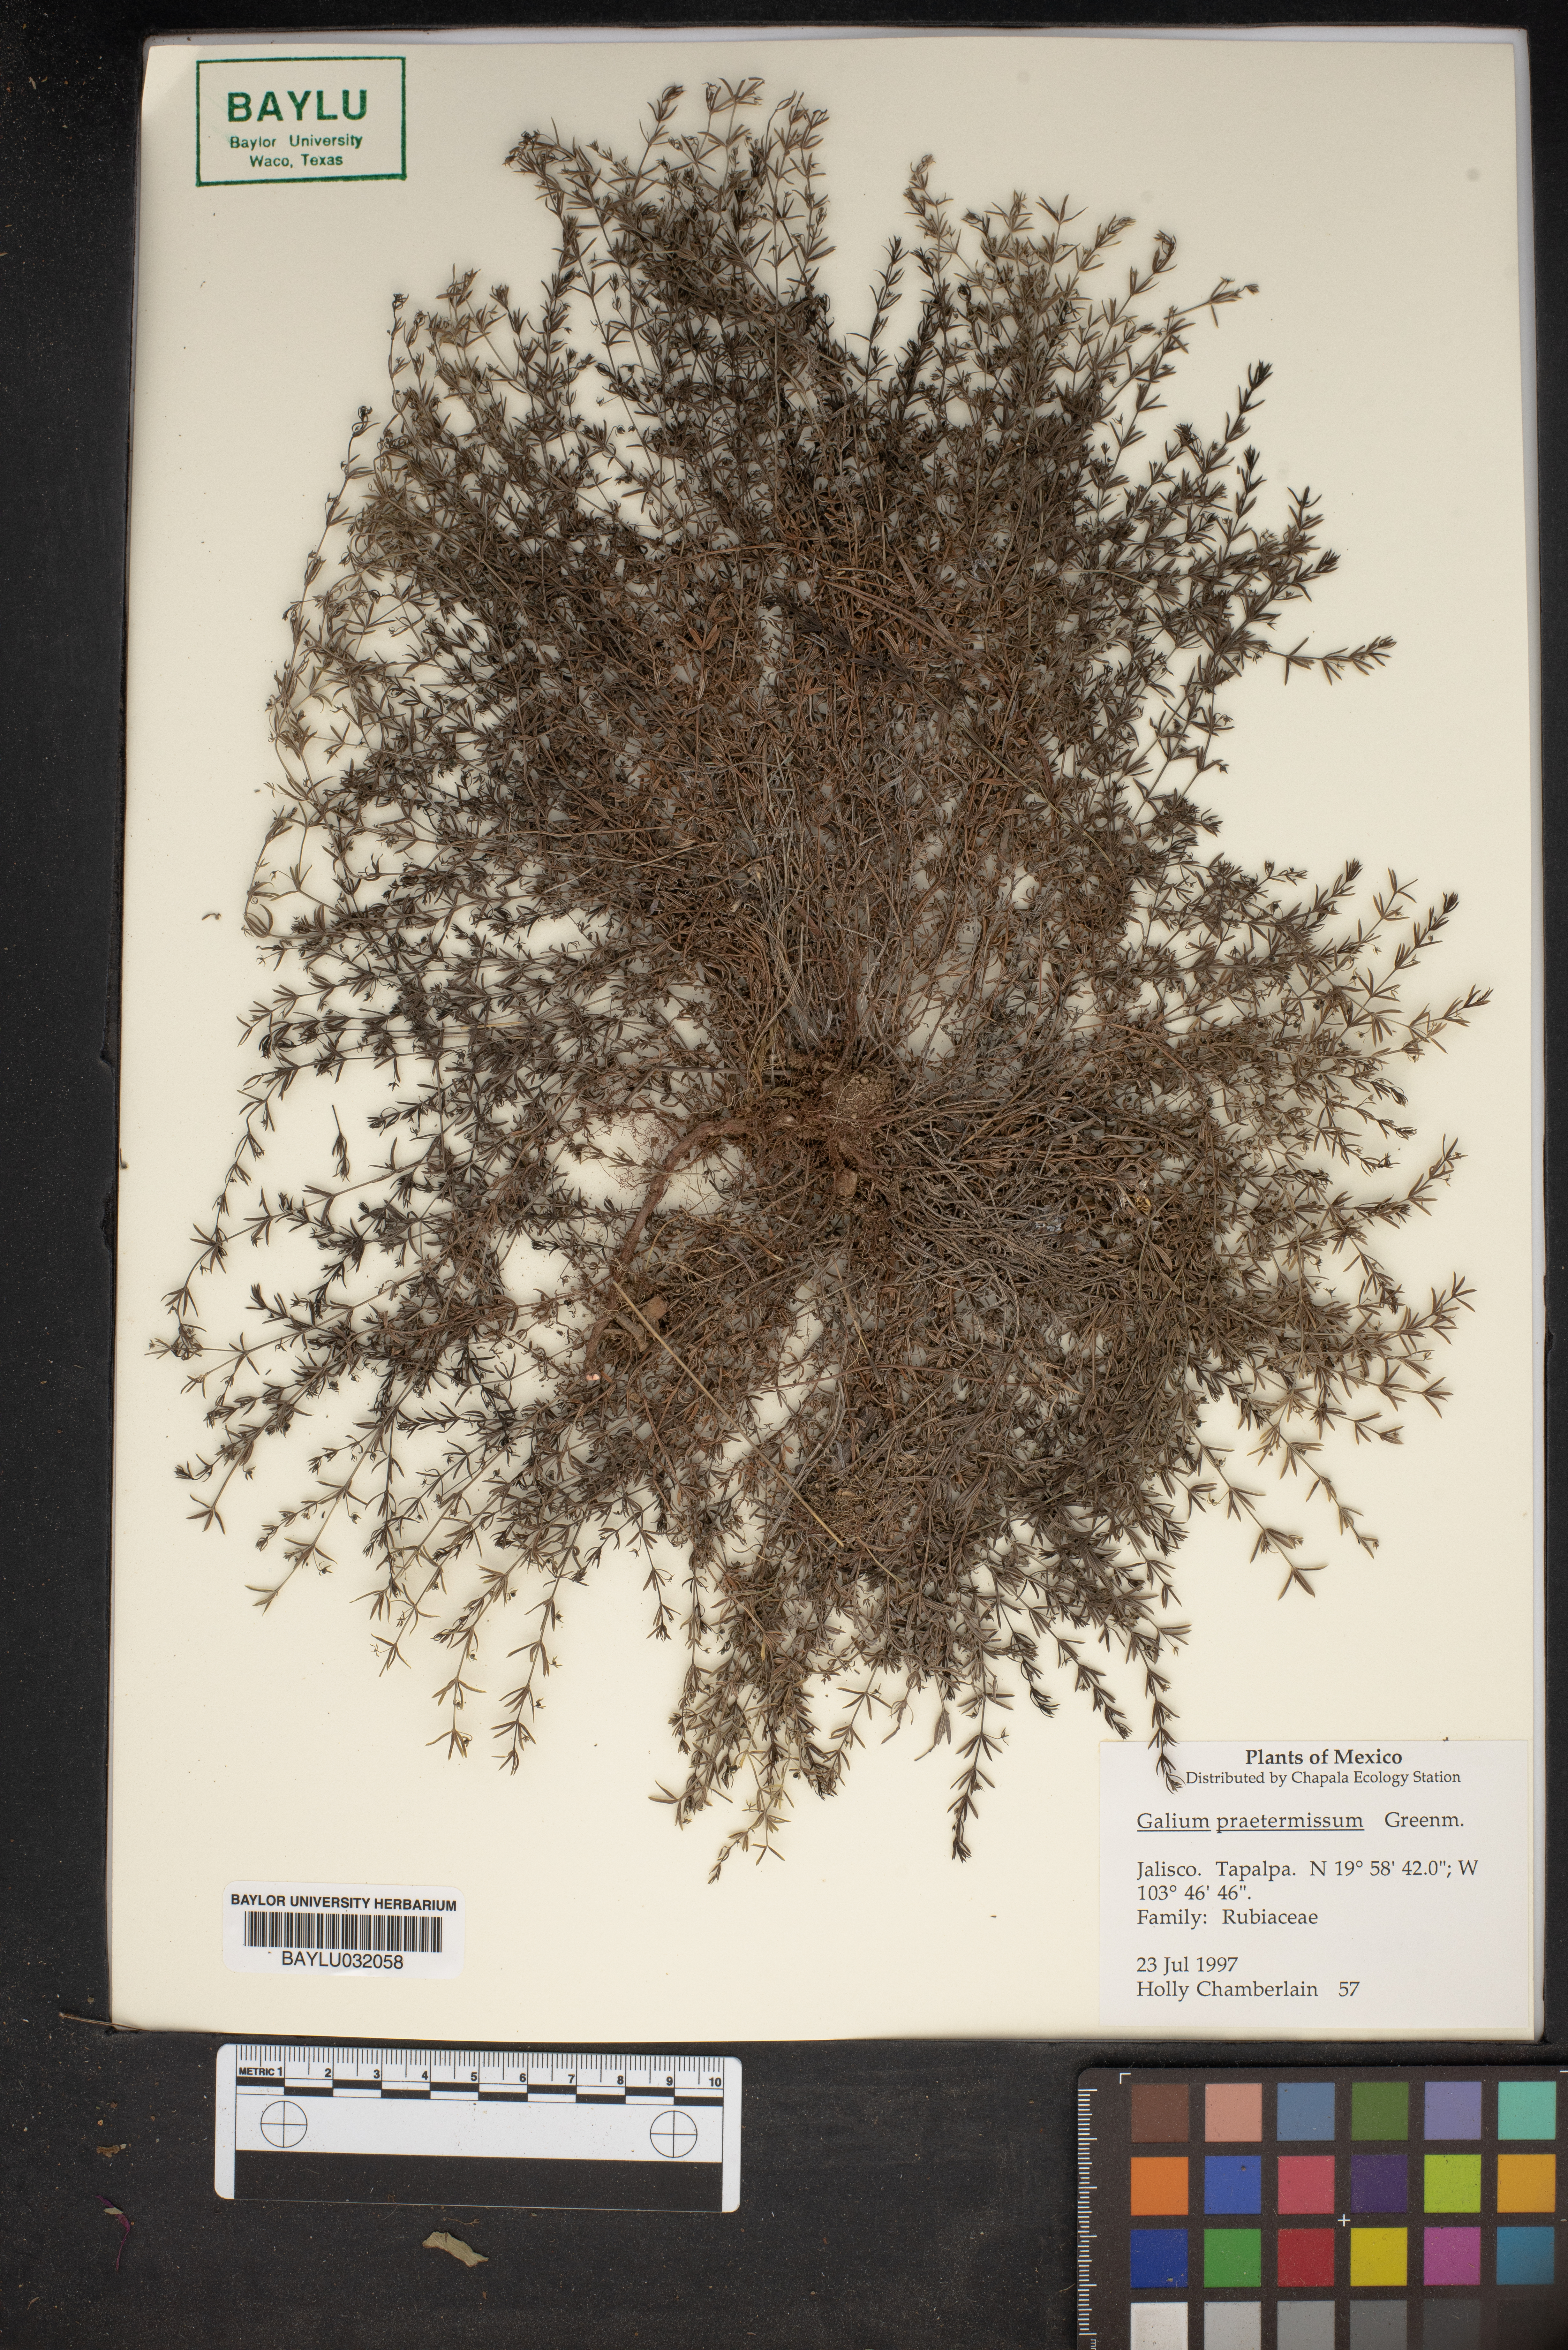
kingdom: Plantae
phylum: Tracheophyta
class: Magnoliopsida
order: Gentianales
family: Rubiaceae
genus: Galium
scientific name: Galium praetermissum
